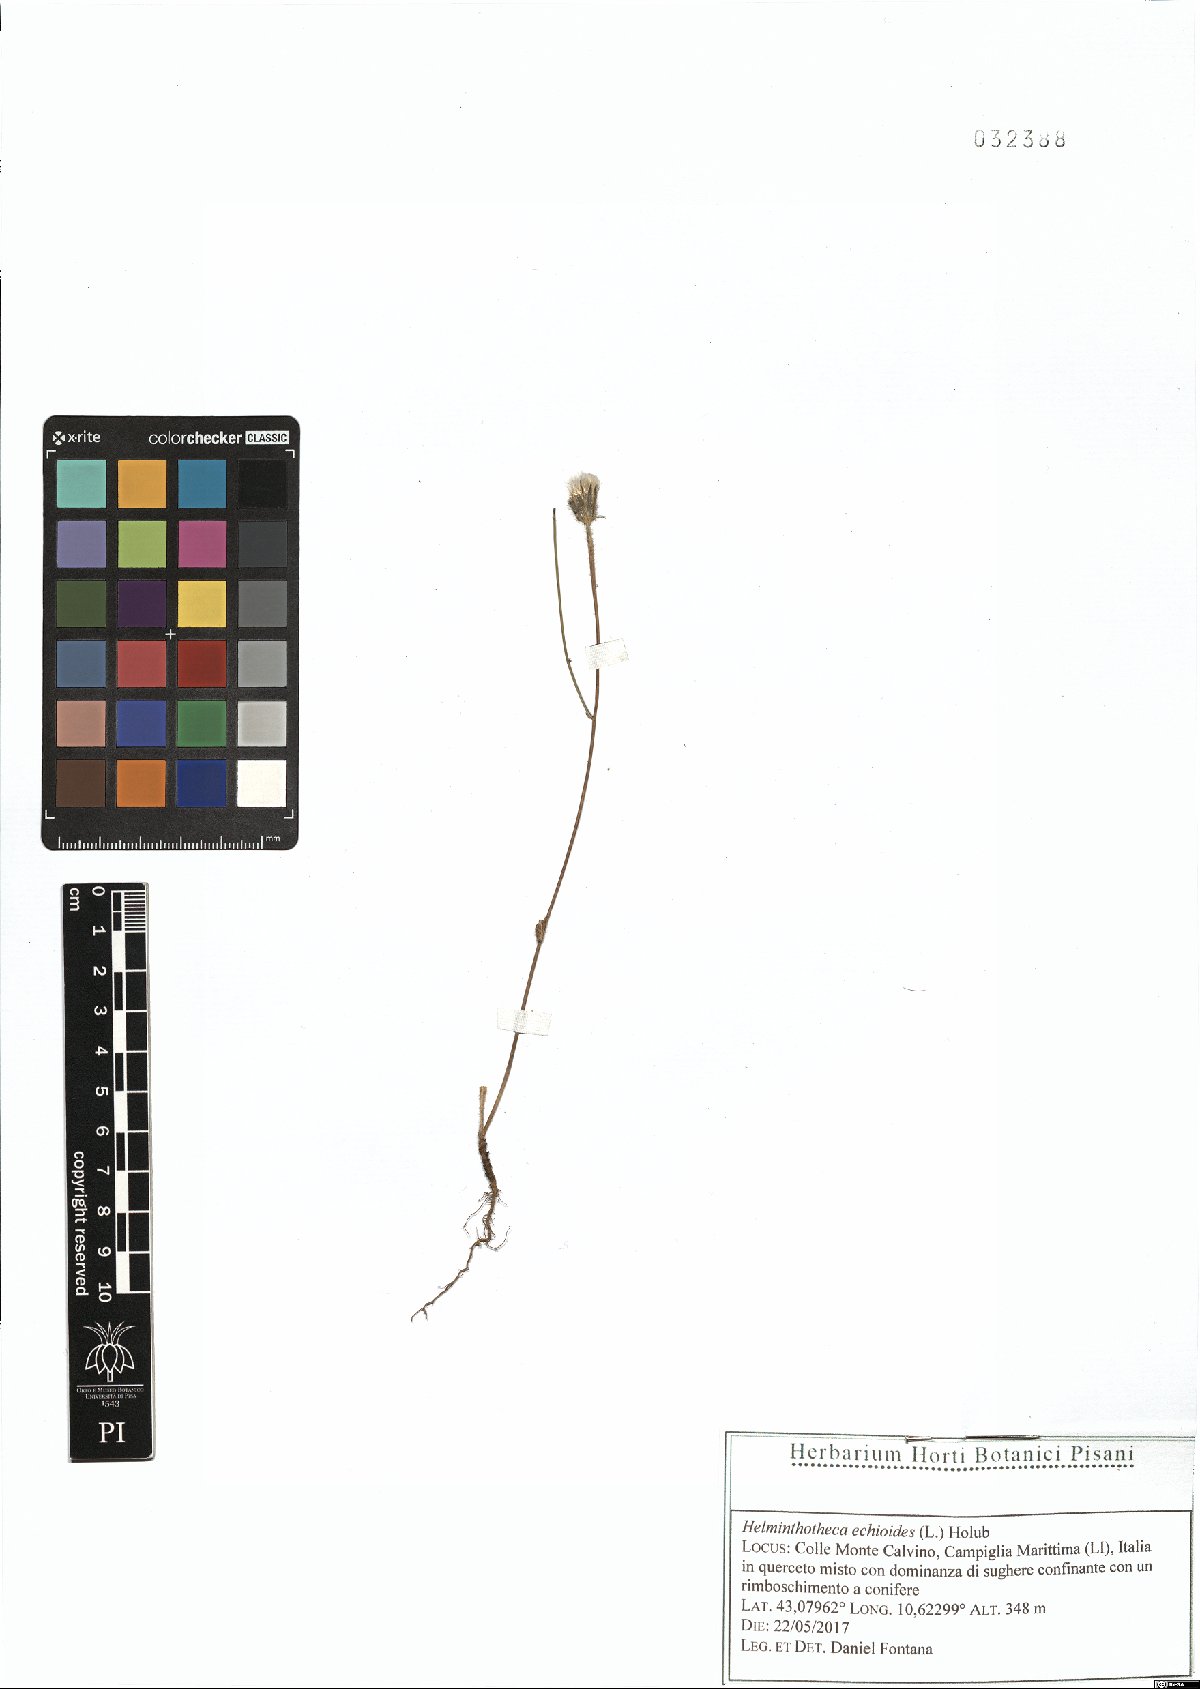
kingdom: Plantae
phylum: Tracheophyta
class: Magnoliopsida
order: Asterales
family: Asteraceae
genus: Helminthotheca
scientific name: Helminthotheca echioides
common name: Ox-tongue
